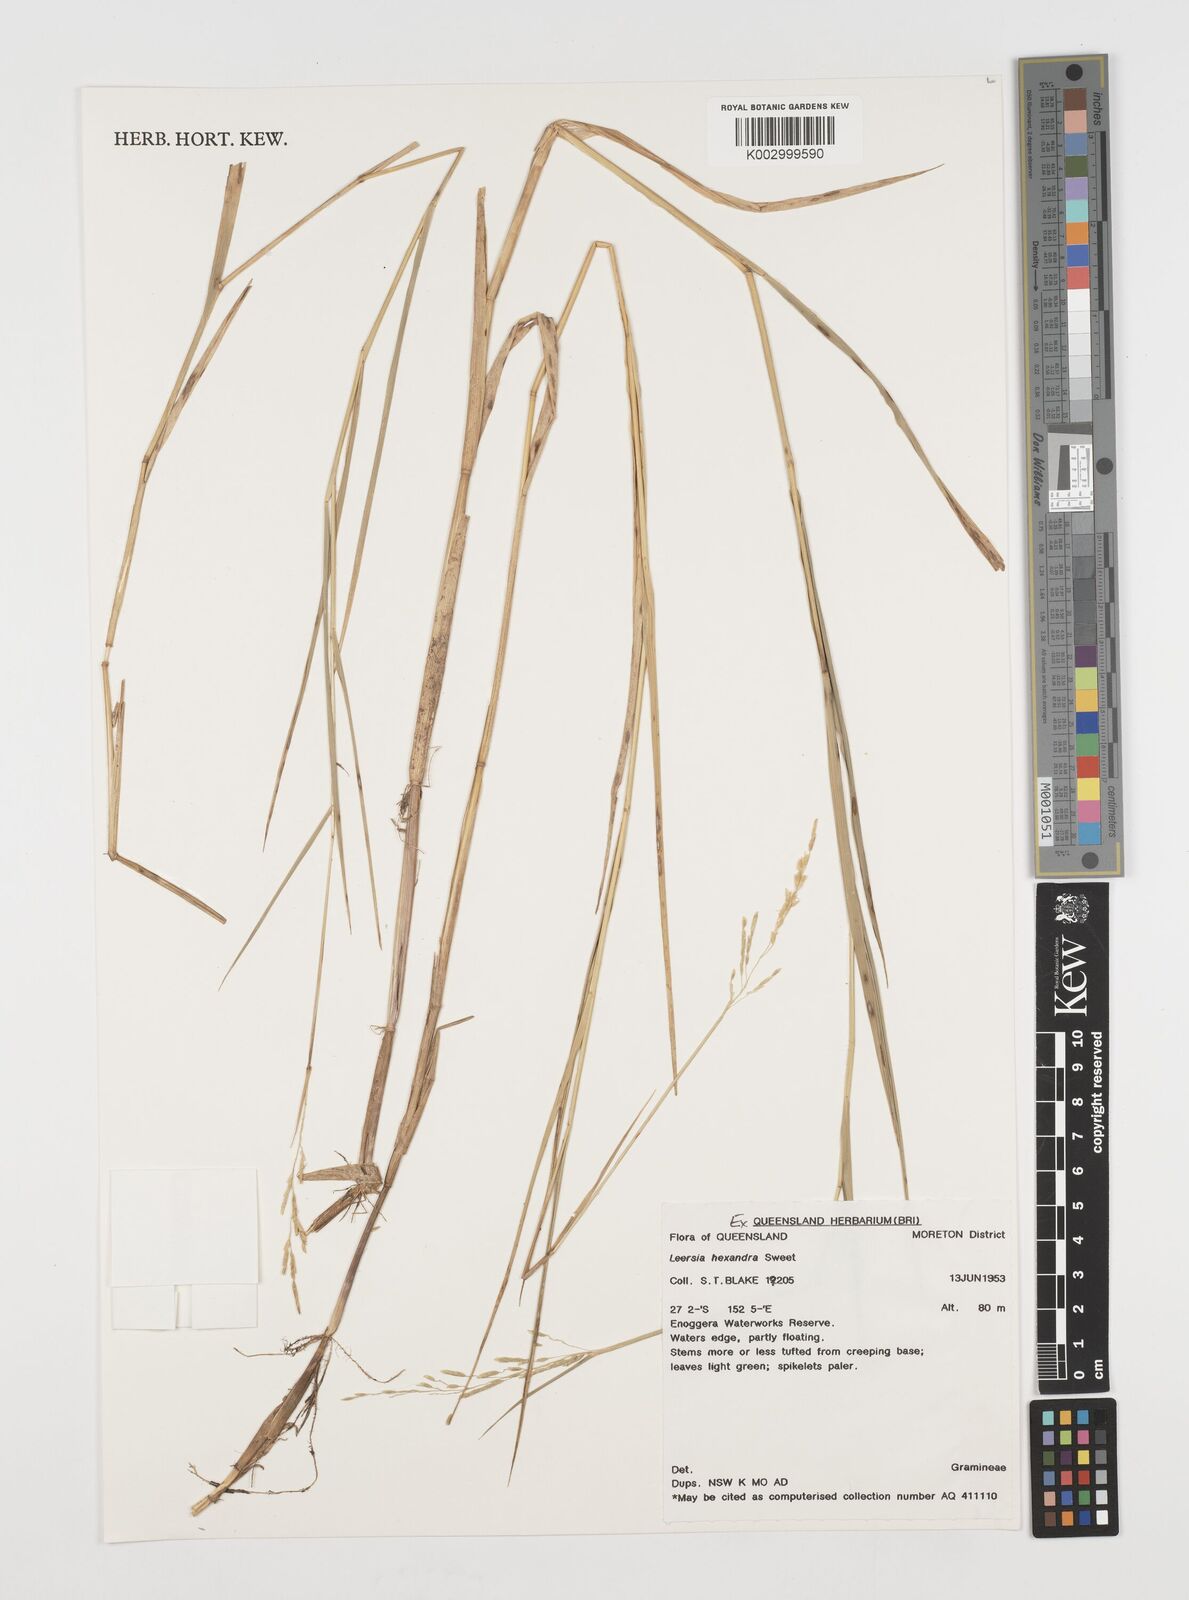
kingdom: Plantae
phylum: Tracheophyta
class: Liliopsida
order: Poales
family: Poaceae
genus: Leersia
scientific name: Leersia hexandra
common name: Southern cut grass
